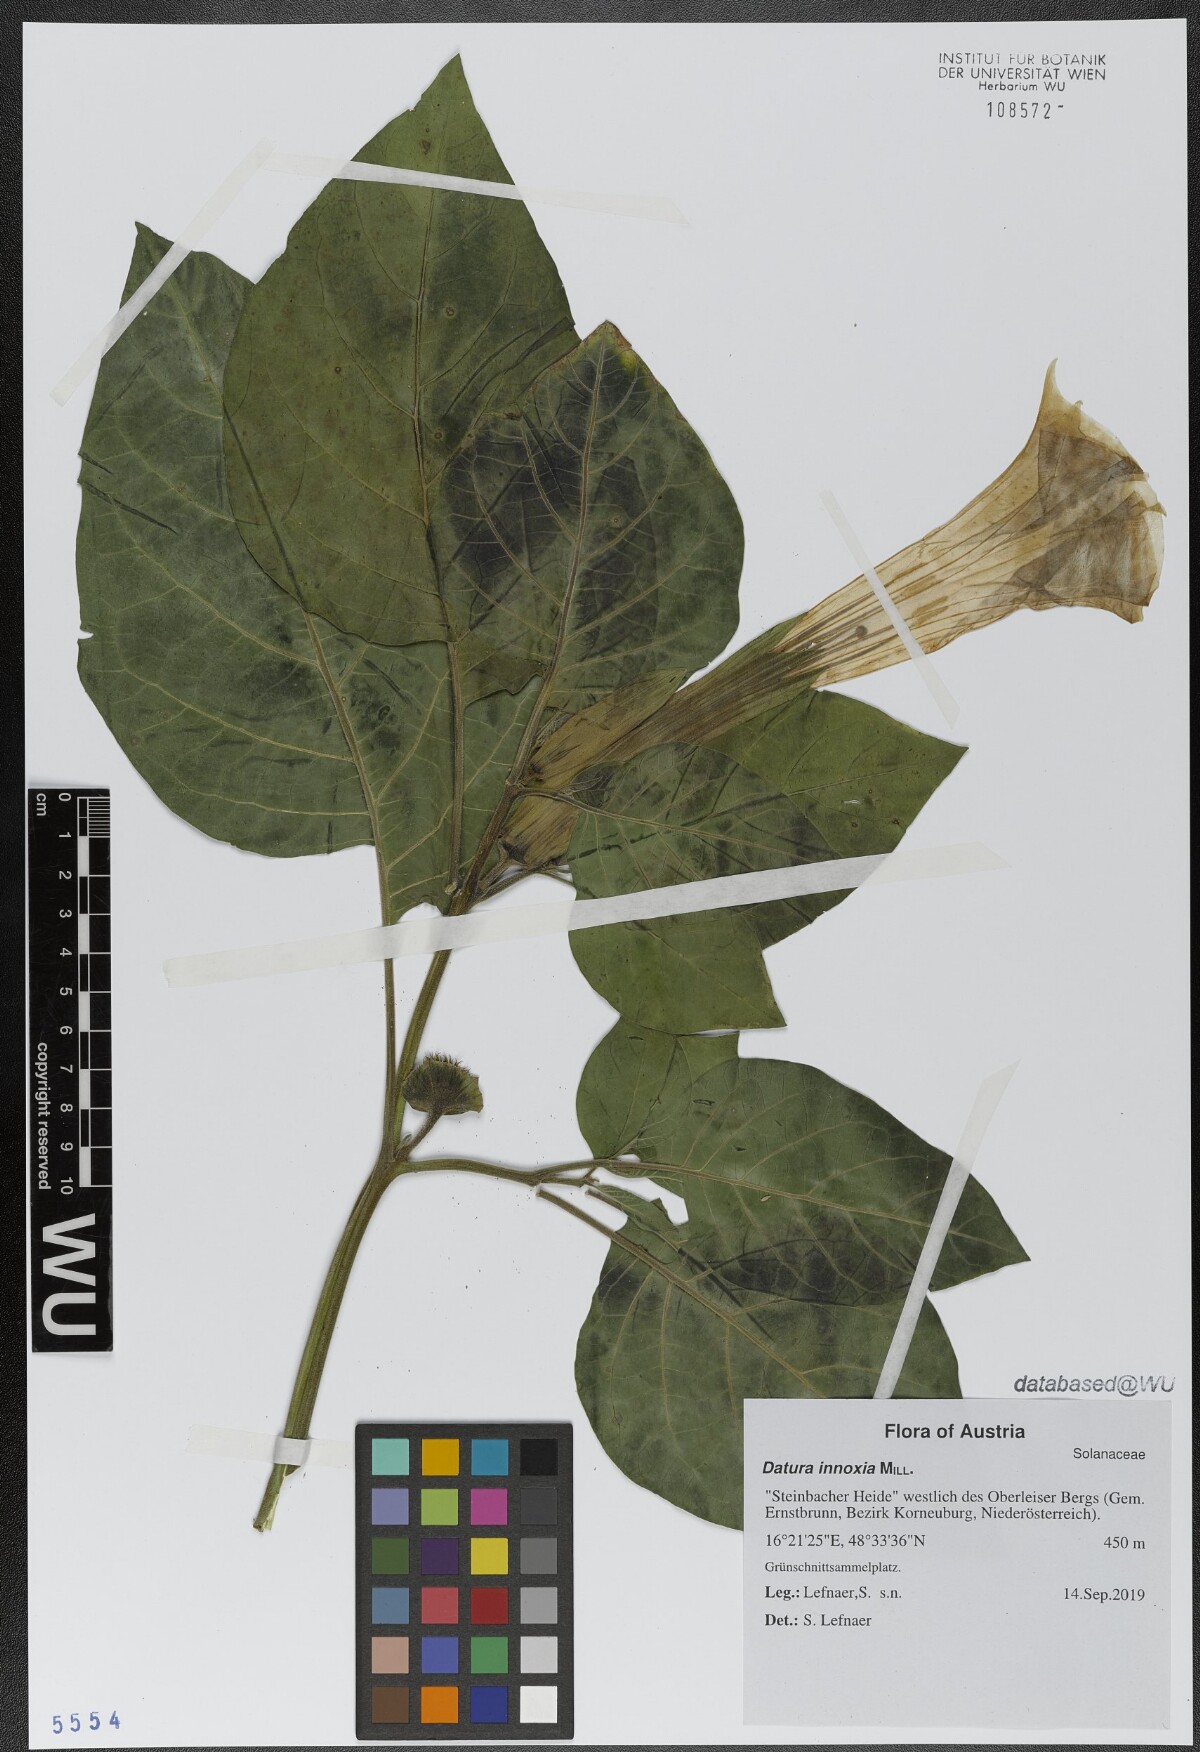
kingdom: Plantae
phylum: Tracheophyta
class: Magnoliopsida
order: Solanales
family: Solanaceae
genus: Datura
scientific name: Datura innoxia
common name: Downy thorn-apple
